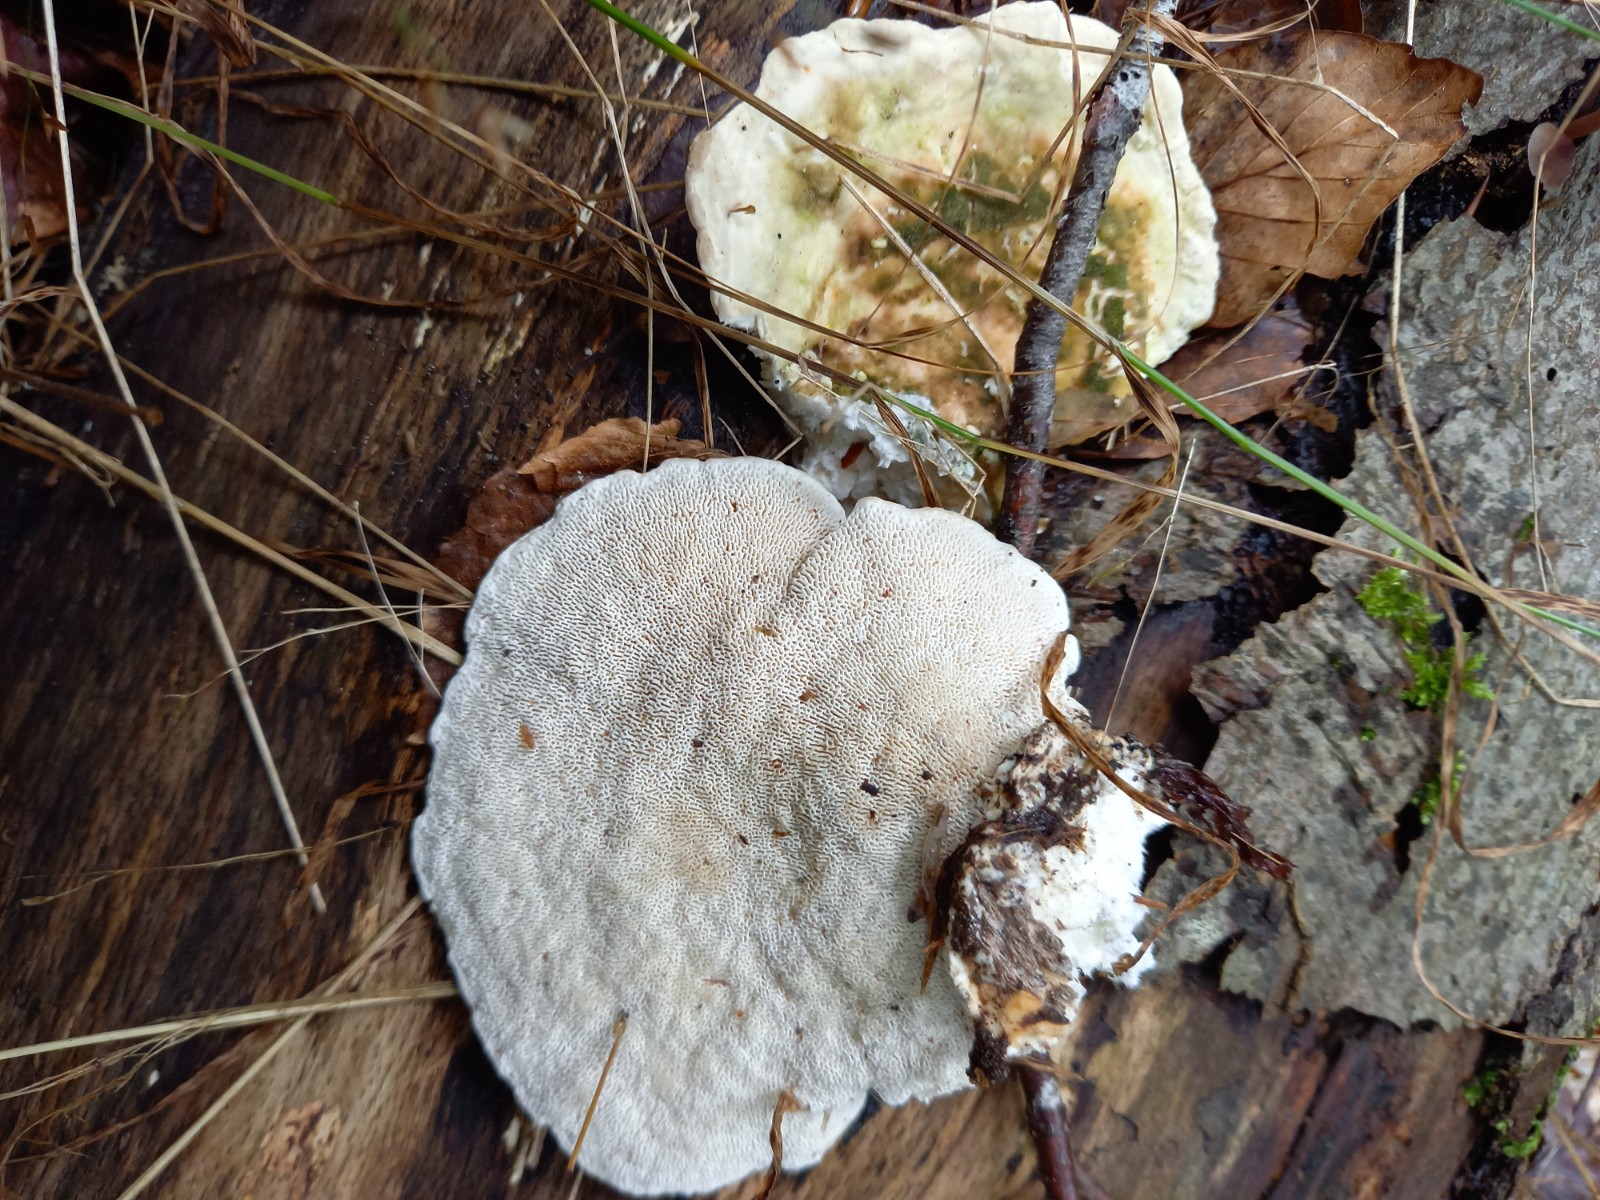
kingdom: Fungi
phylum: Basidiomycota
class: Agaricomycetes
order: Polyporales
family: Polyporaceae
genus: Trametes
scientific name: Trametes gibbosa
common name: puklet læderporesvamp
